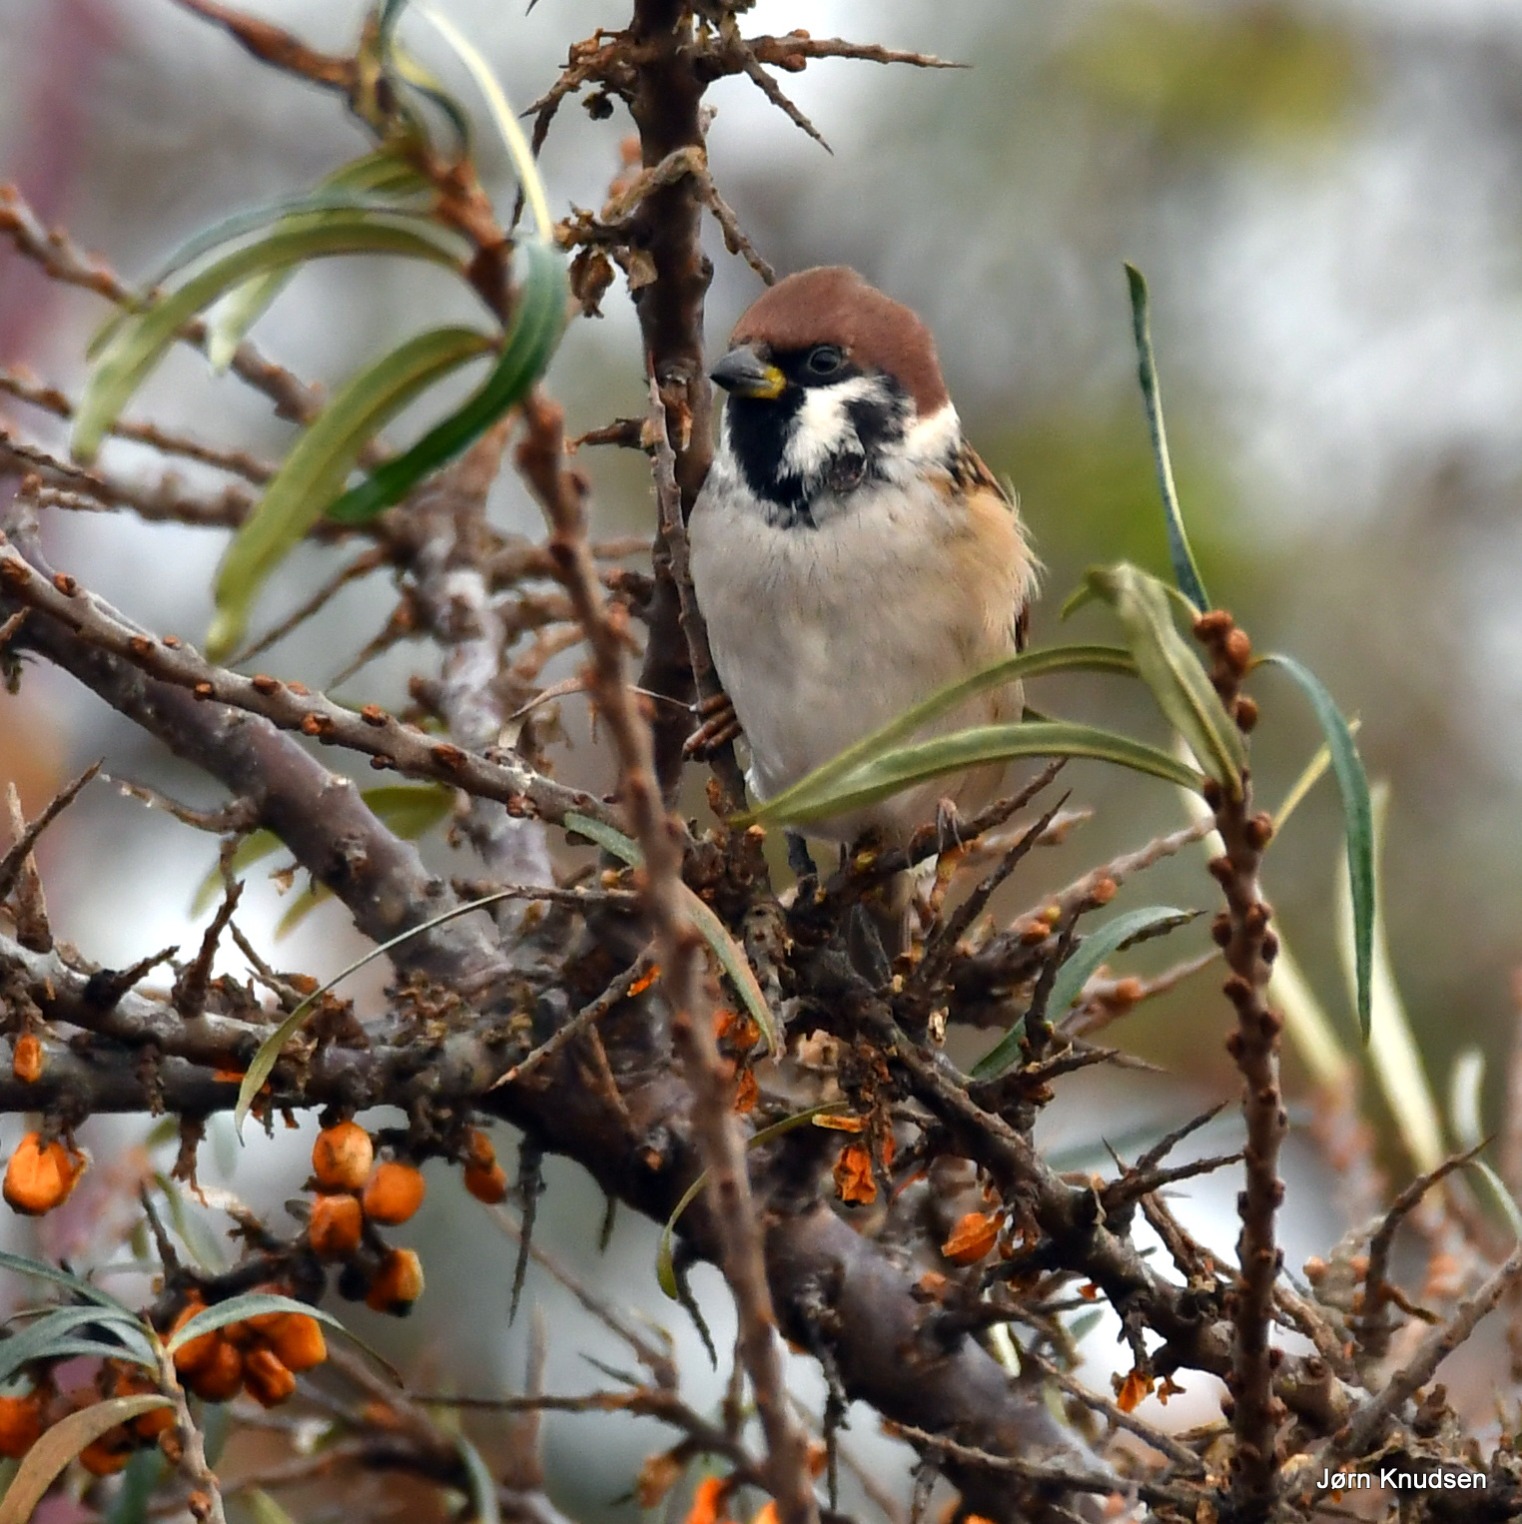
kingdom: Animalia
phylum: Chordata
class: Aves
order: Passeriformes
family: Passeridae
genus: Passer
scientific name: Passer montanus
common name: Skovspurv
